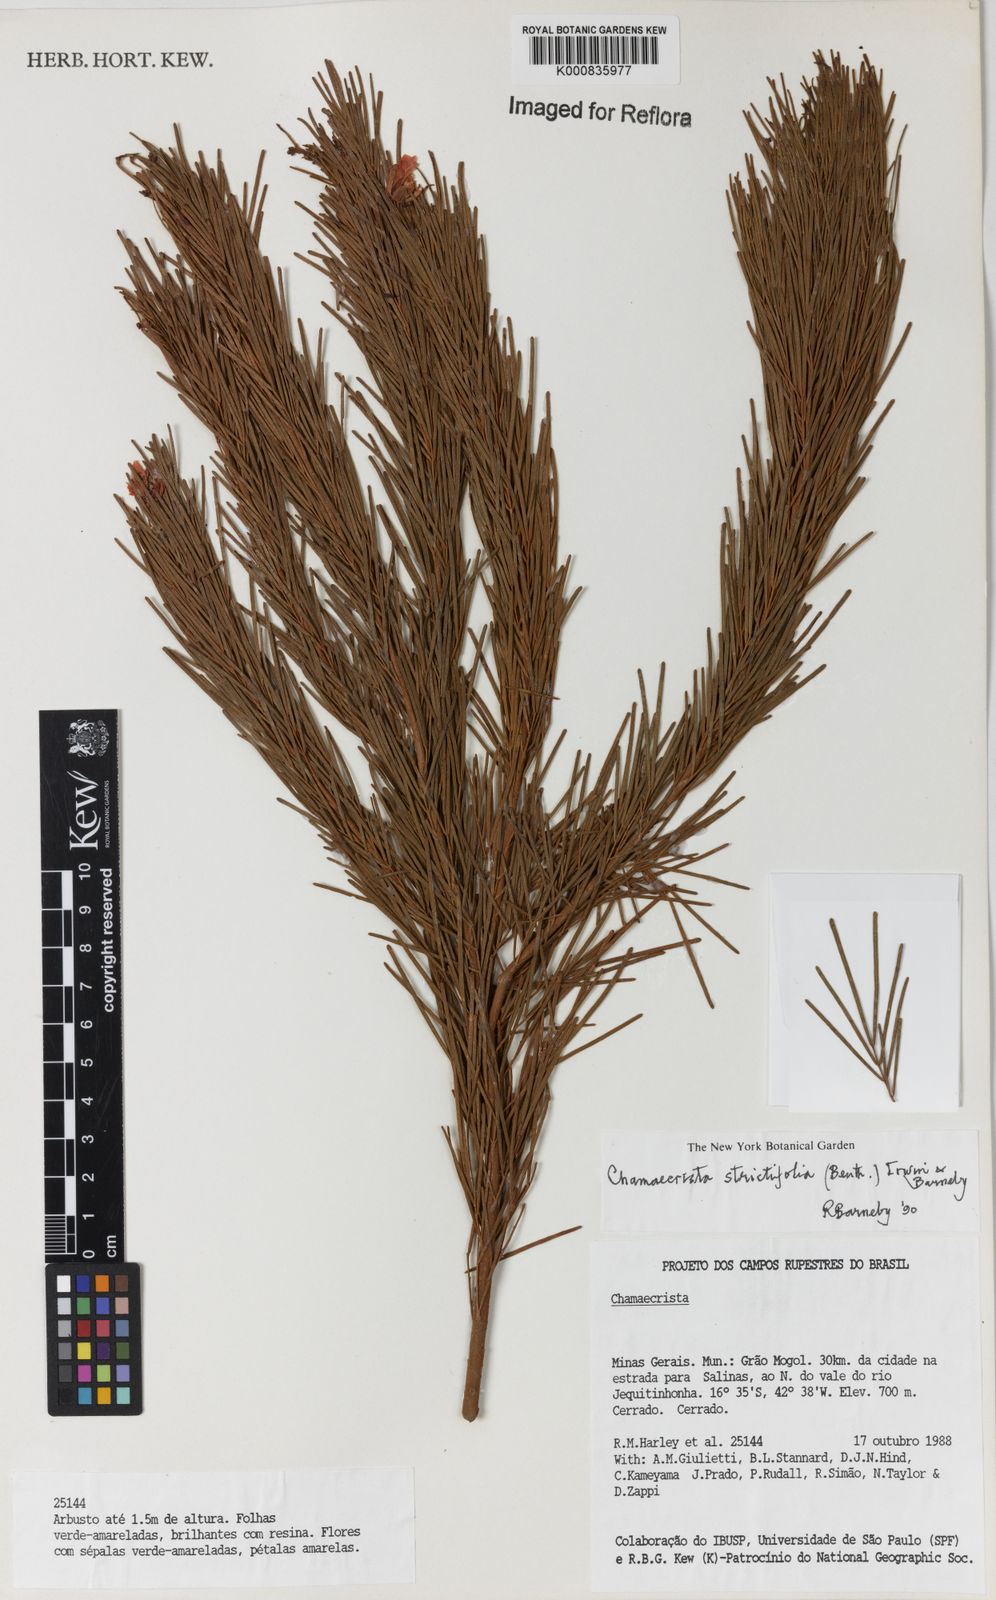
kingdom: Plantae
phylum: Tracheophyta
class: Magnoliopsida
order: Fabales
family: Fabaceae
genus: Chamaecrista
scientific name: Chamaecrista strictifolia
